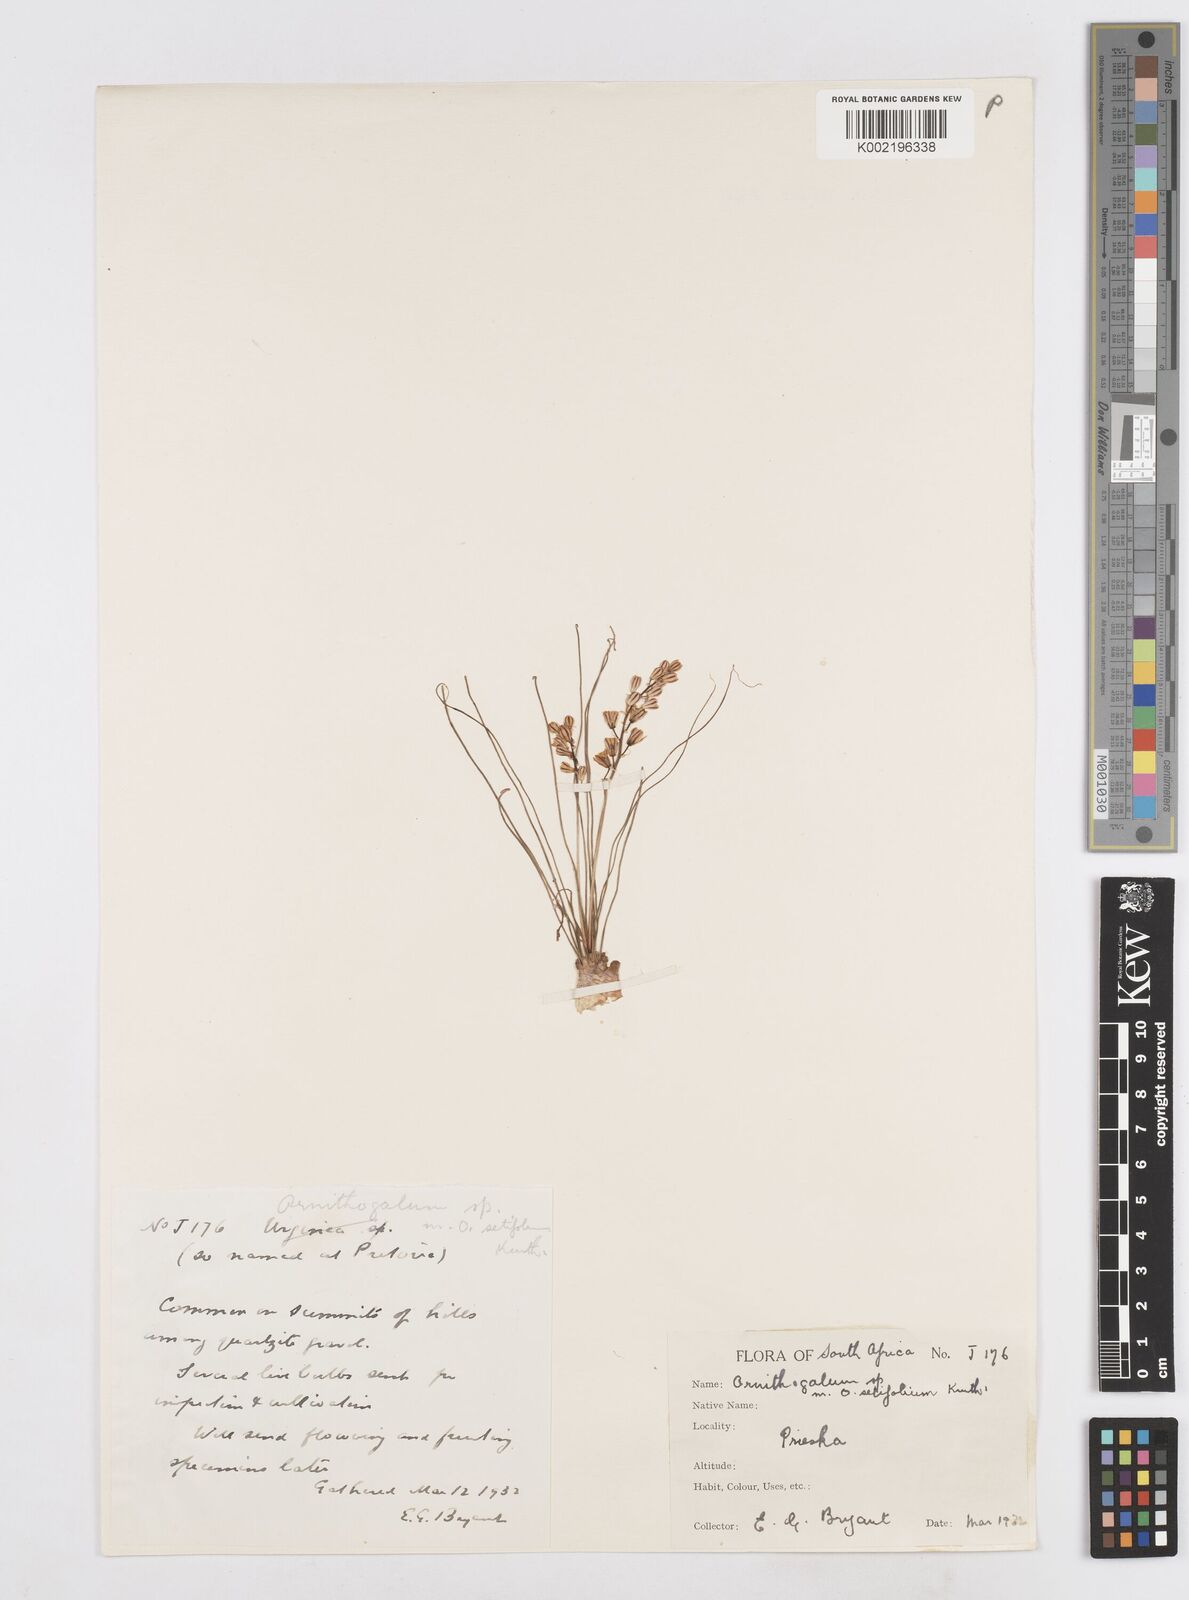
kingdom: Plantae
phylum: Tracheophyta
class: Liliopsida
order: Asparagales
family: Asparagaceae
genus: Ornithogalum
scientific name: Ornithogalum juncifolium
